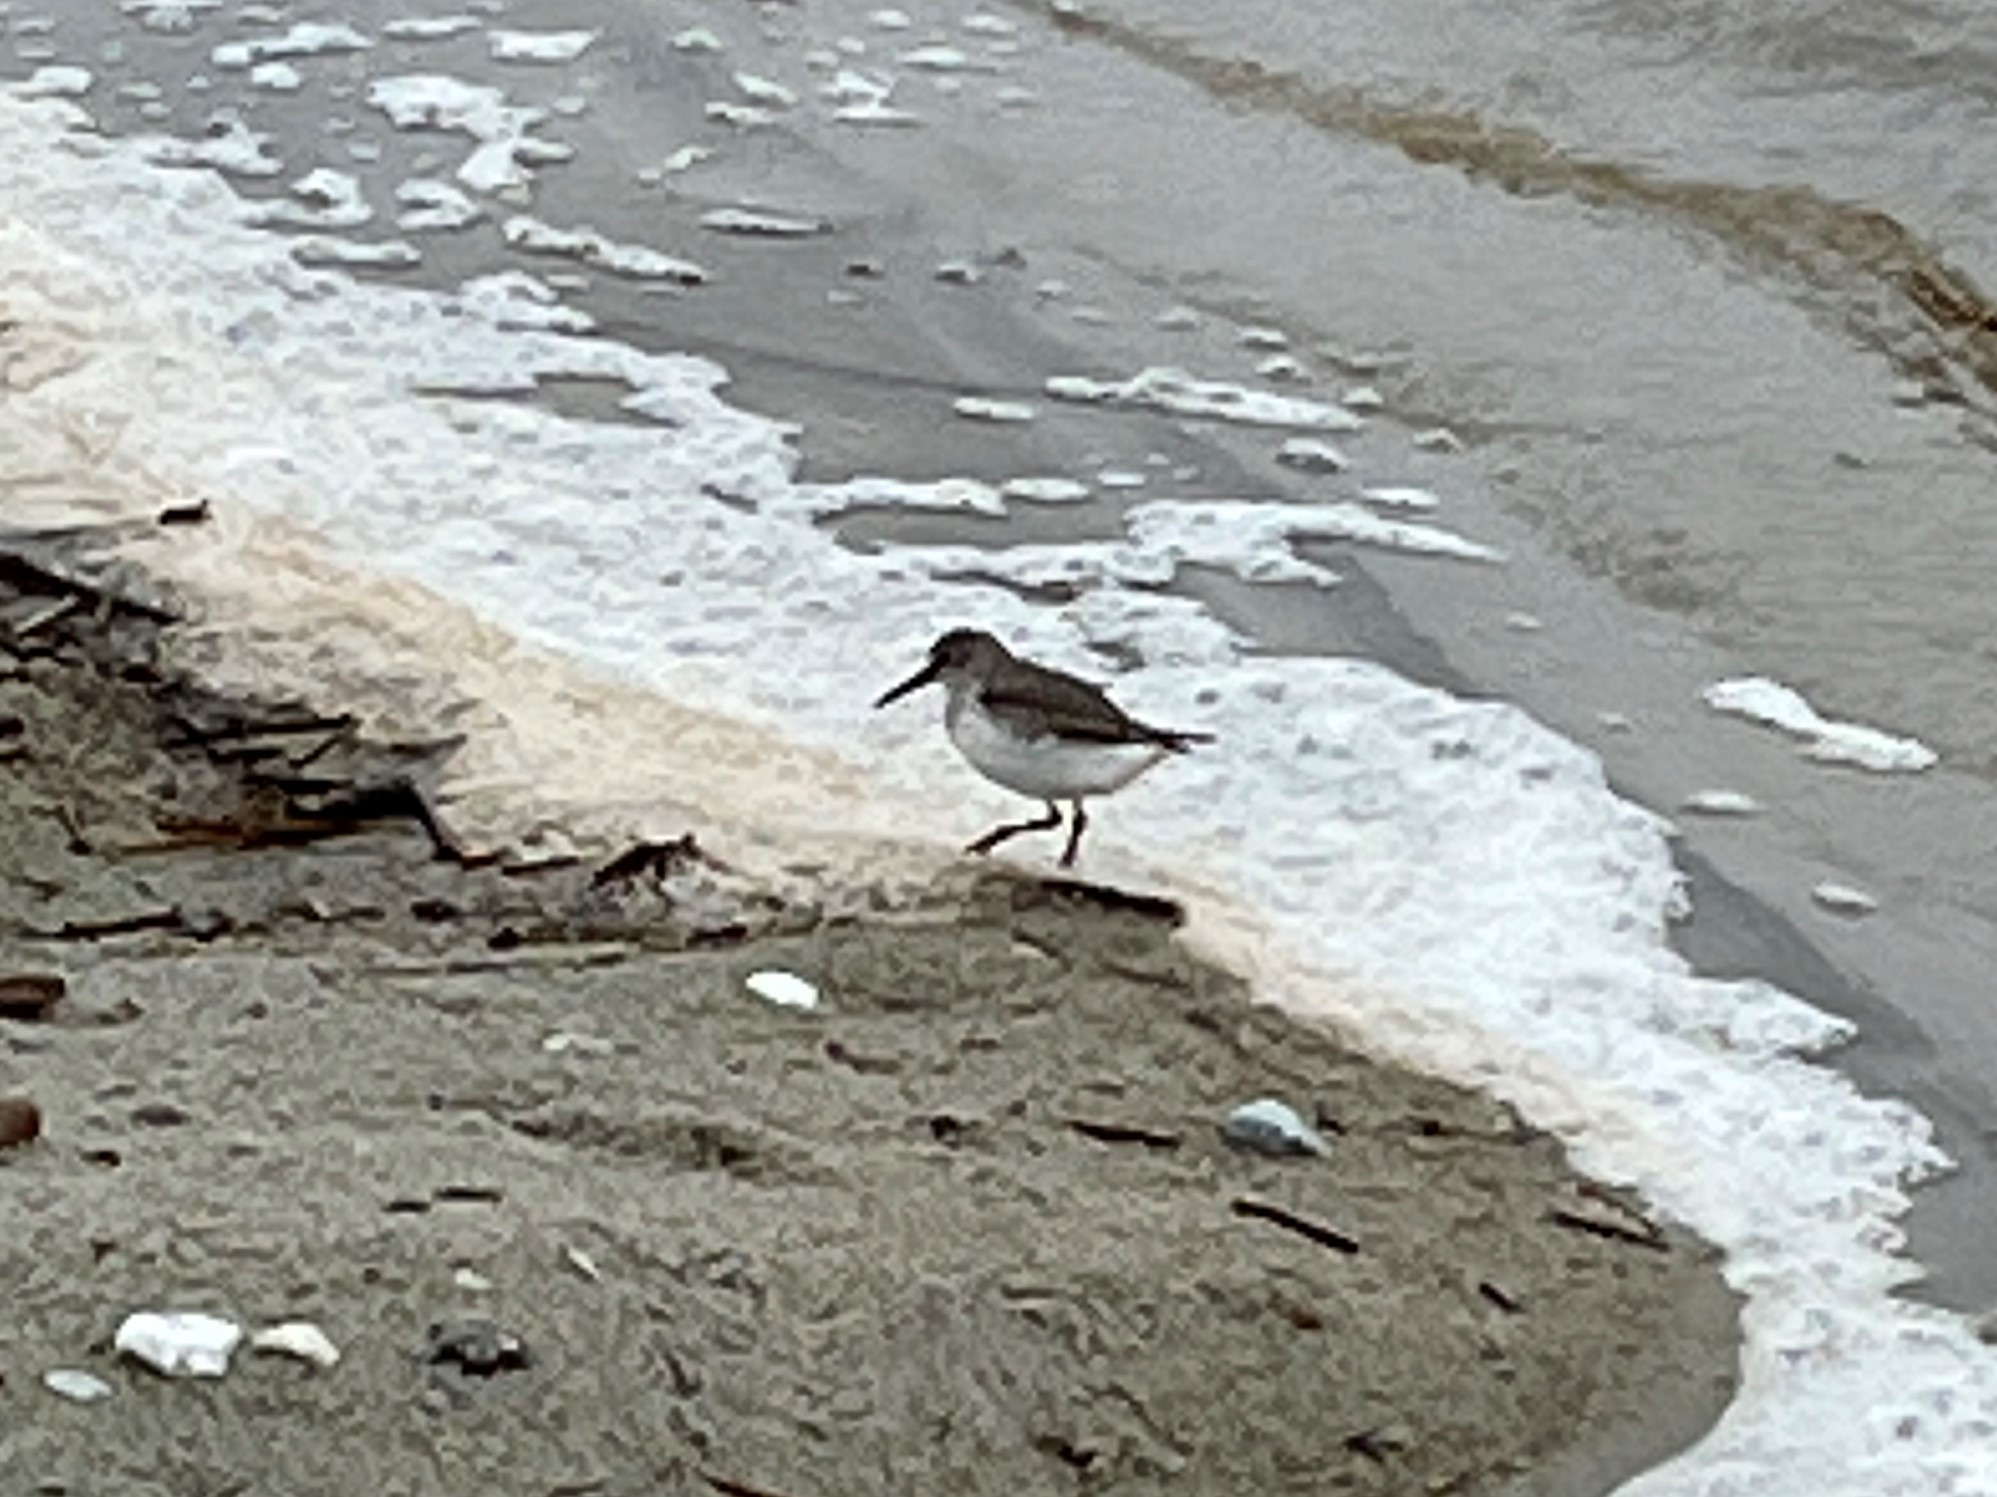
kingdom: Animalia
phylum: Chordata
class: Aves
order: Charadriiformes
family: Scolopacidae
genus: Calidris
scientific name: Calidris alpina
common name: Almindelig ryle
